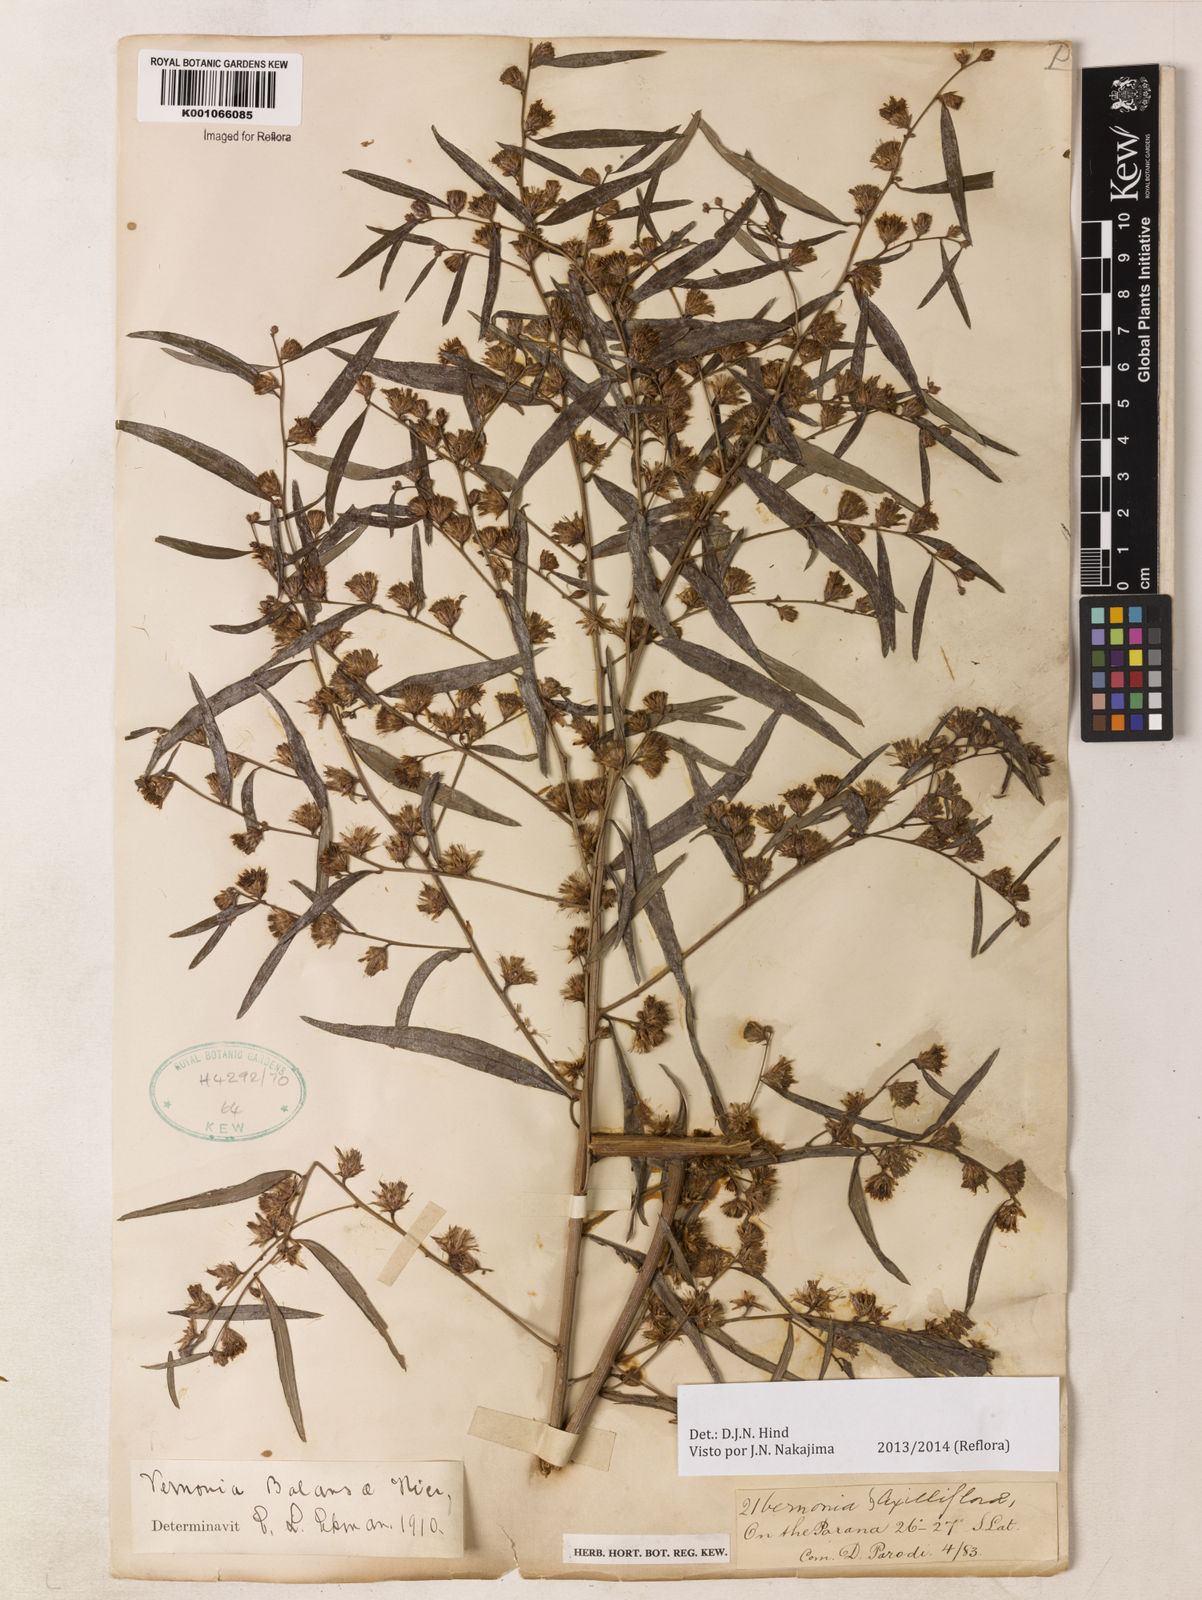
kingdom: Plantae
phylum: Tracheophyta
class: Magnoliopsida
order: Asterales
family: Asteraceae
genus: Vernonia
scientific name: Vernonia balansae
